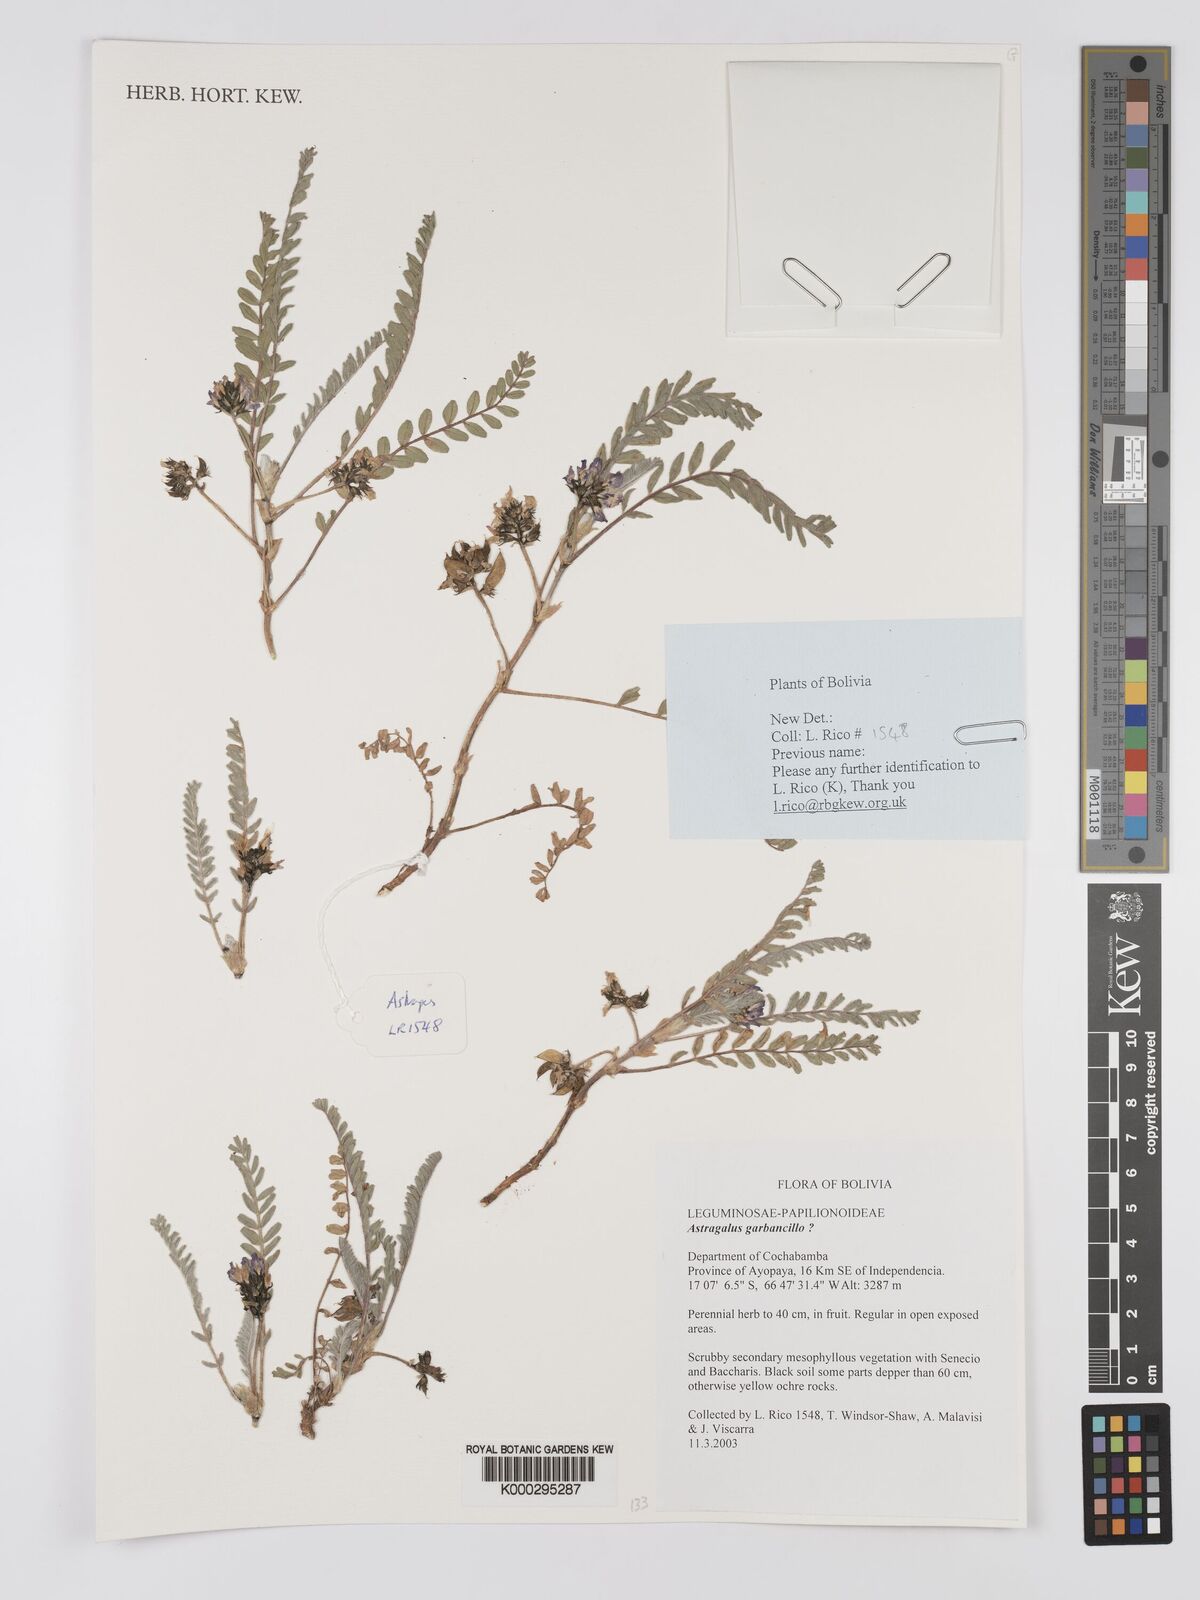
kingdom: Plantae
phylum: Tracheophyta
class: Magnoliopsida
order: Fabales
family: Fabaceae
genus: Astragalus
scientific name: Astragalus arequipensis
